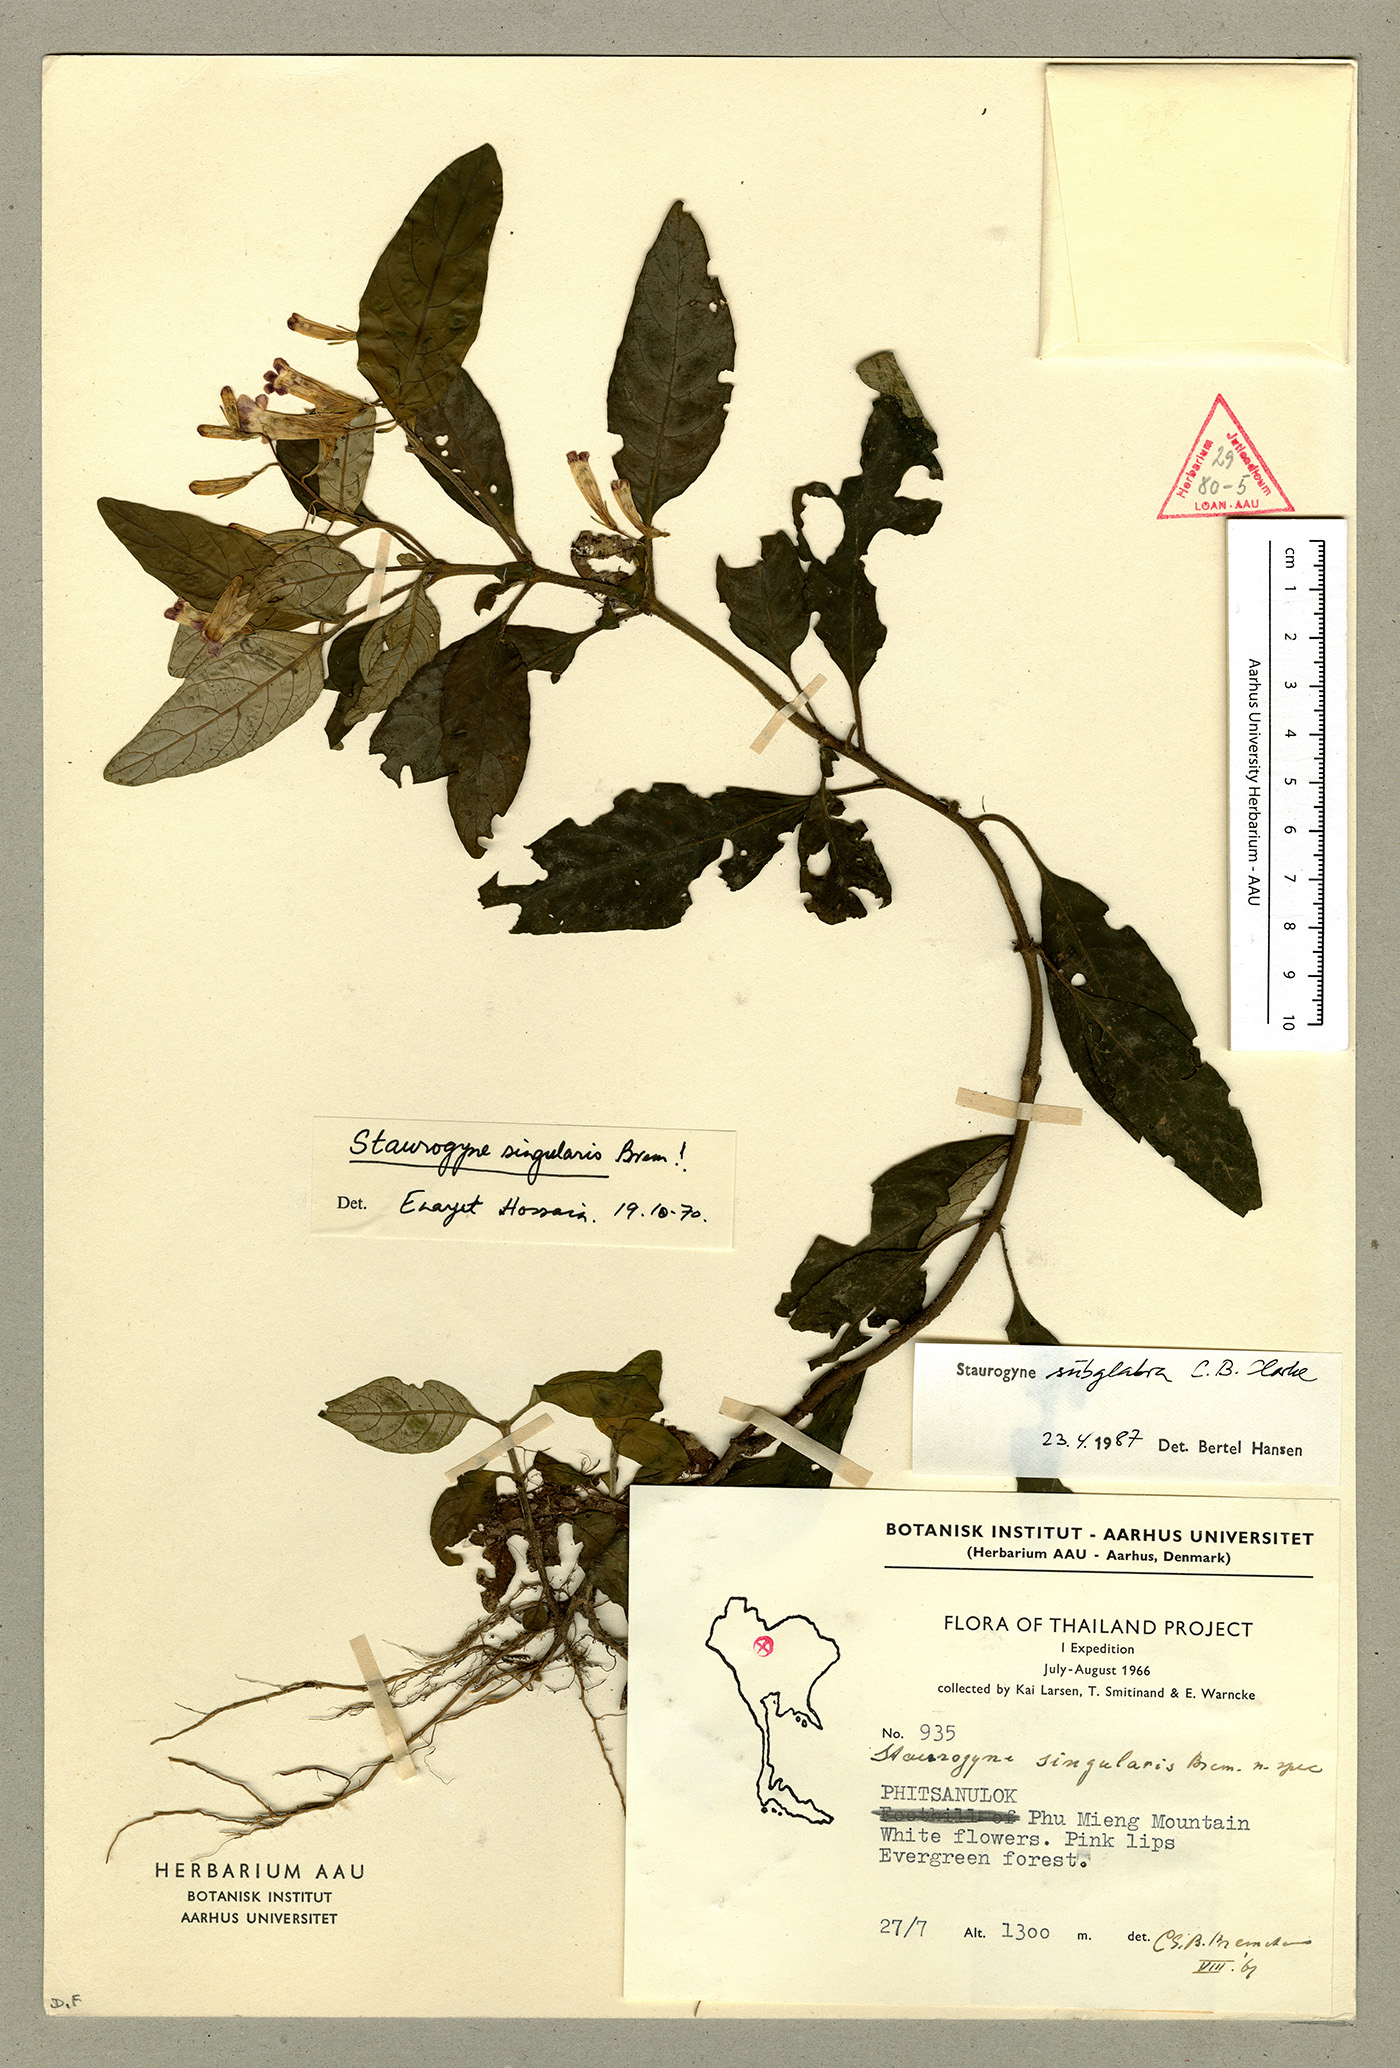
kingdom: Plantae
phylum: Tracheophyta
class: Magnoliopsida
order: Lamiales
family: Acanthaceae
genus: Staurogyne
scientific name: Staurogyne subglabra
